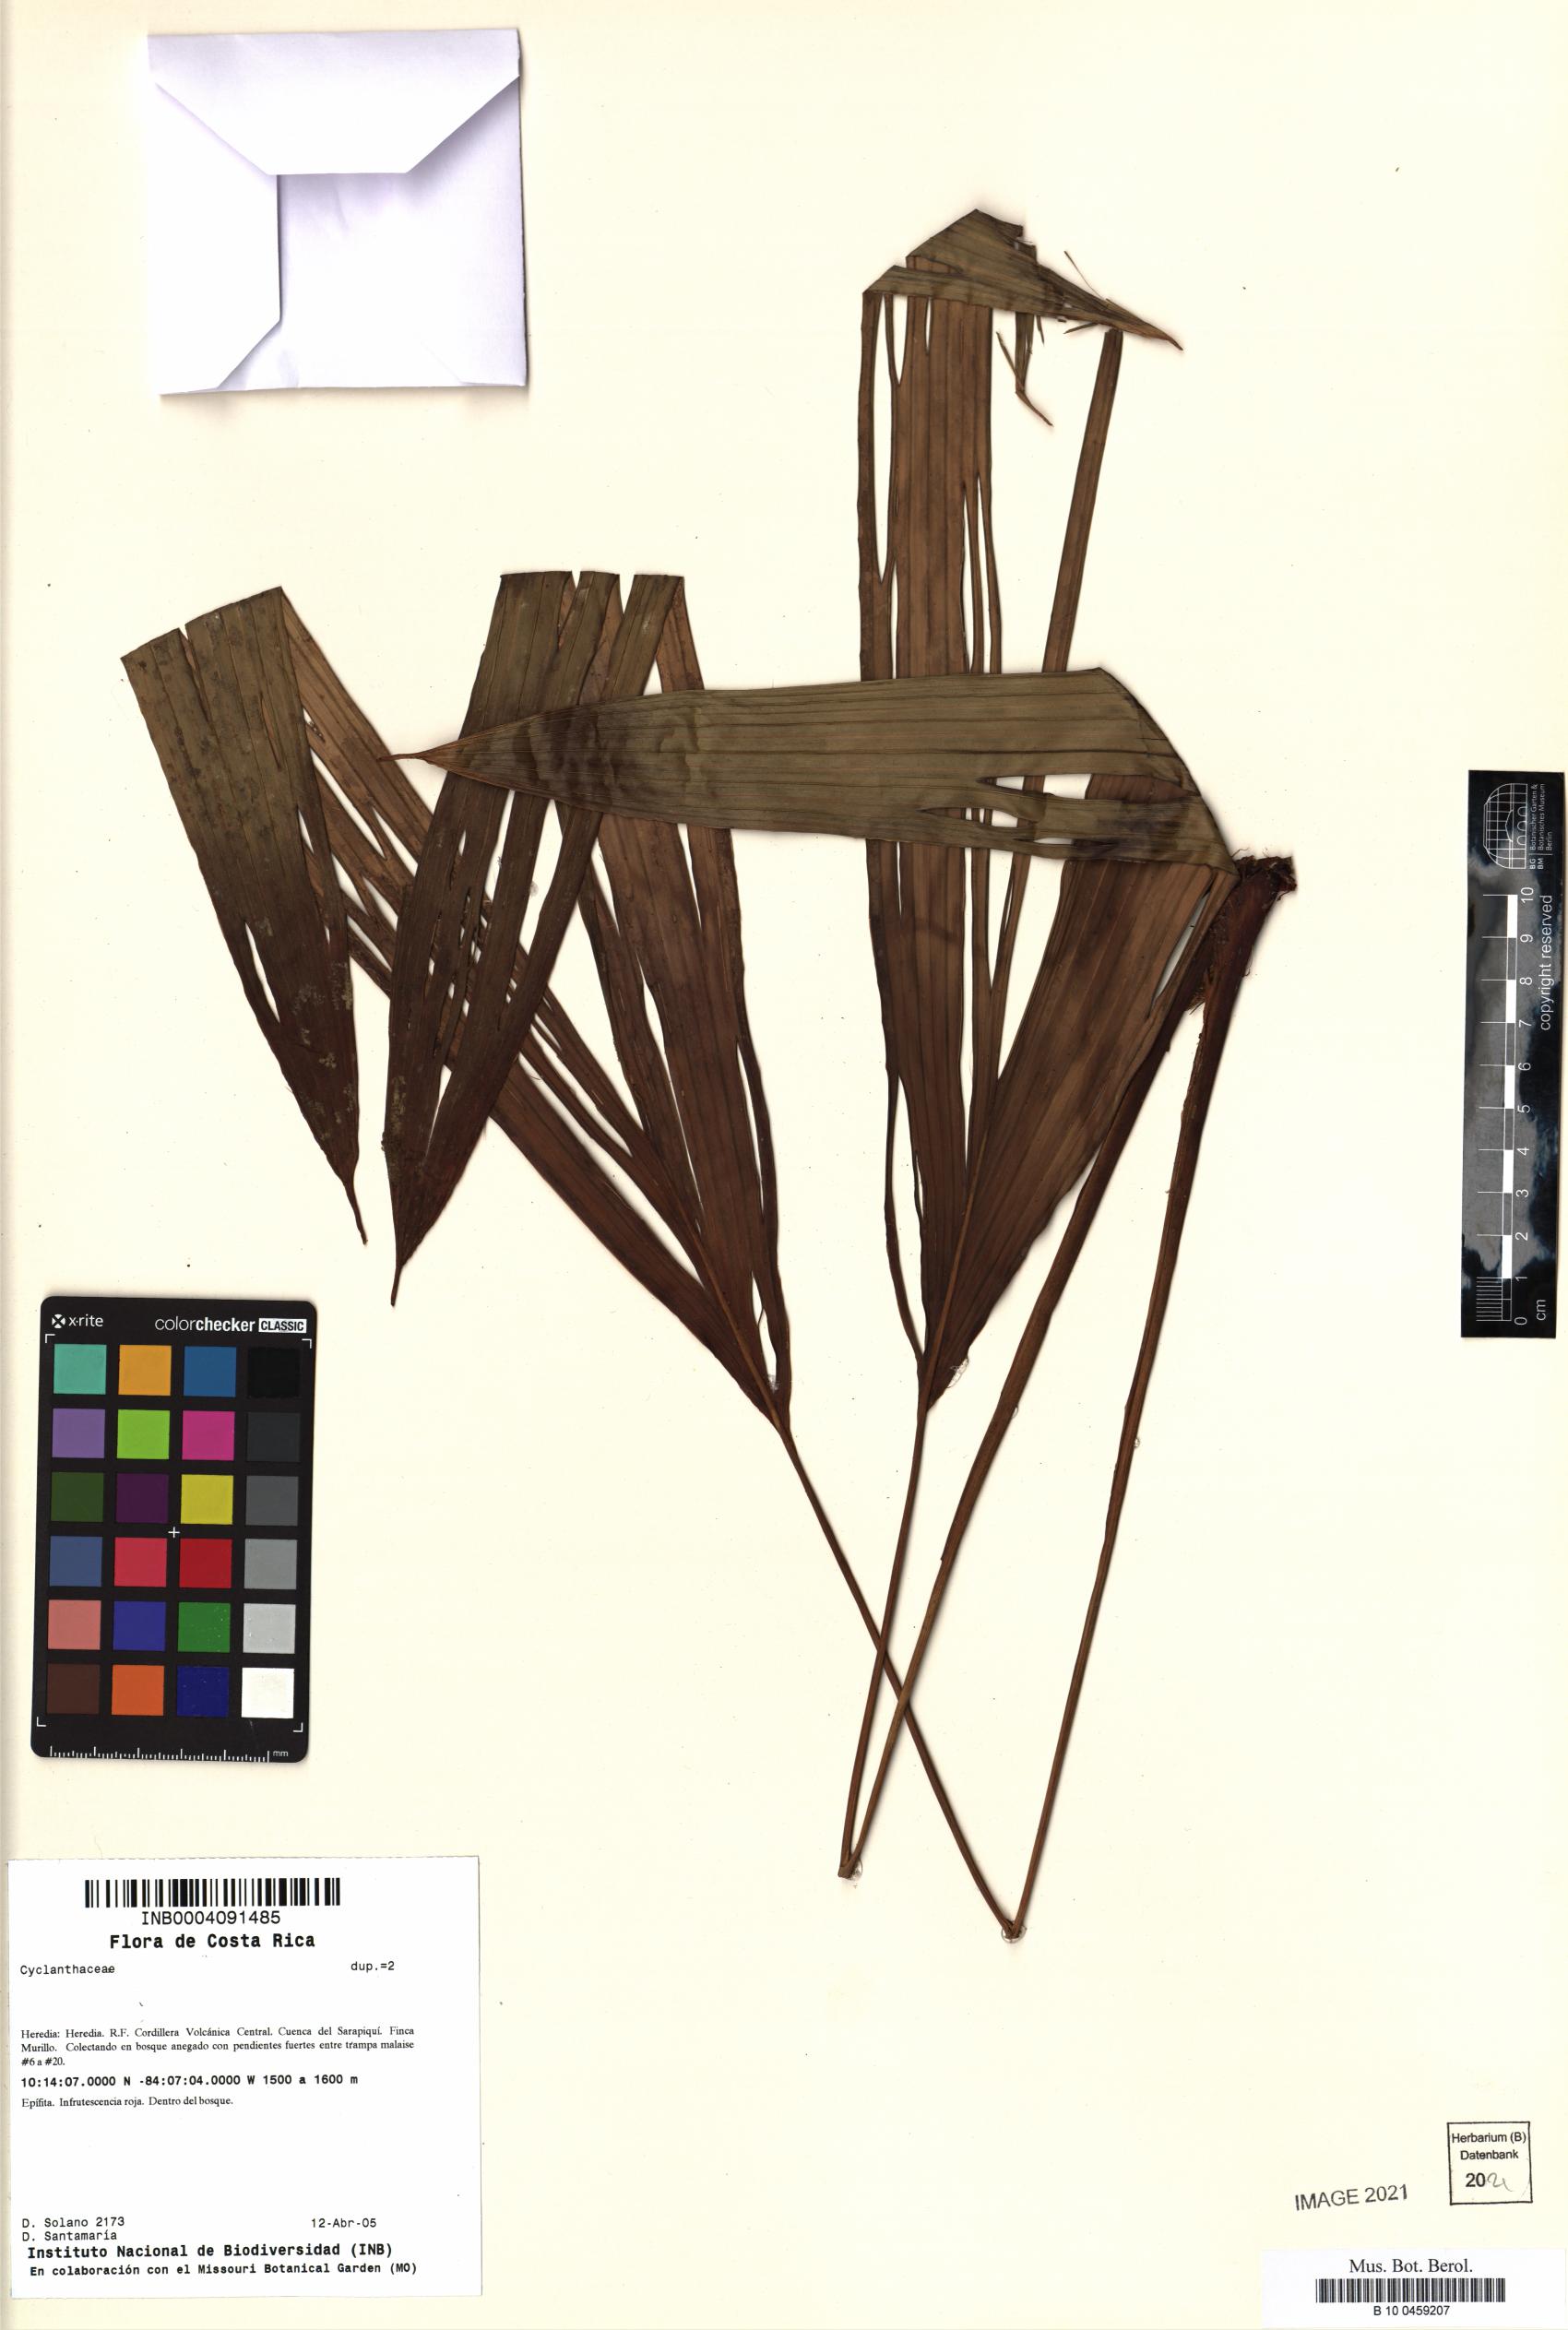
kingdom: Plantae
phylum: Tracheophyta
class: Liliopsida
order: Pandanales
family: Cyclanthaceae
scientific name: Cyclanthaceae
